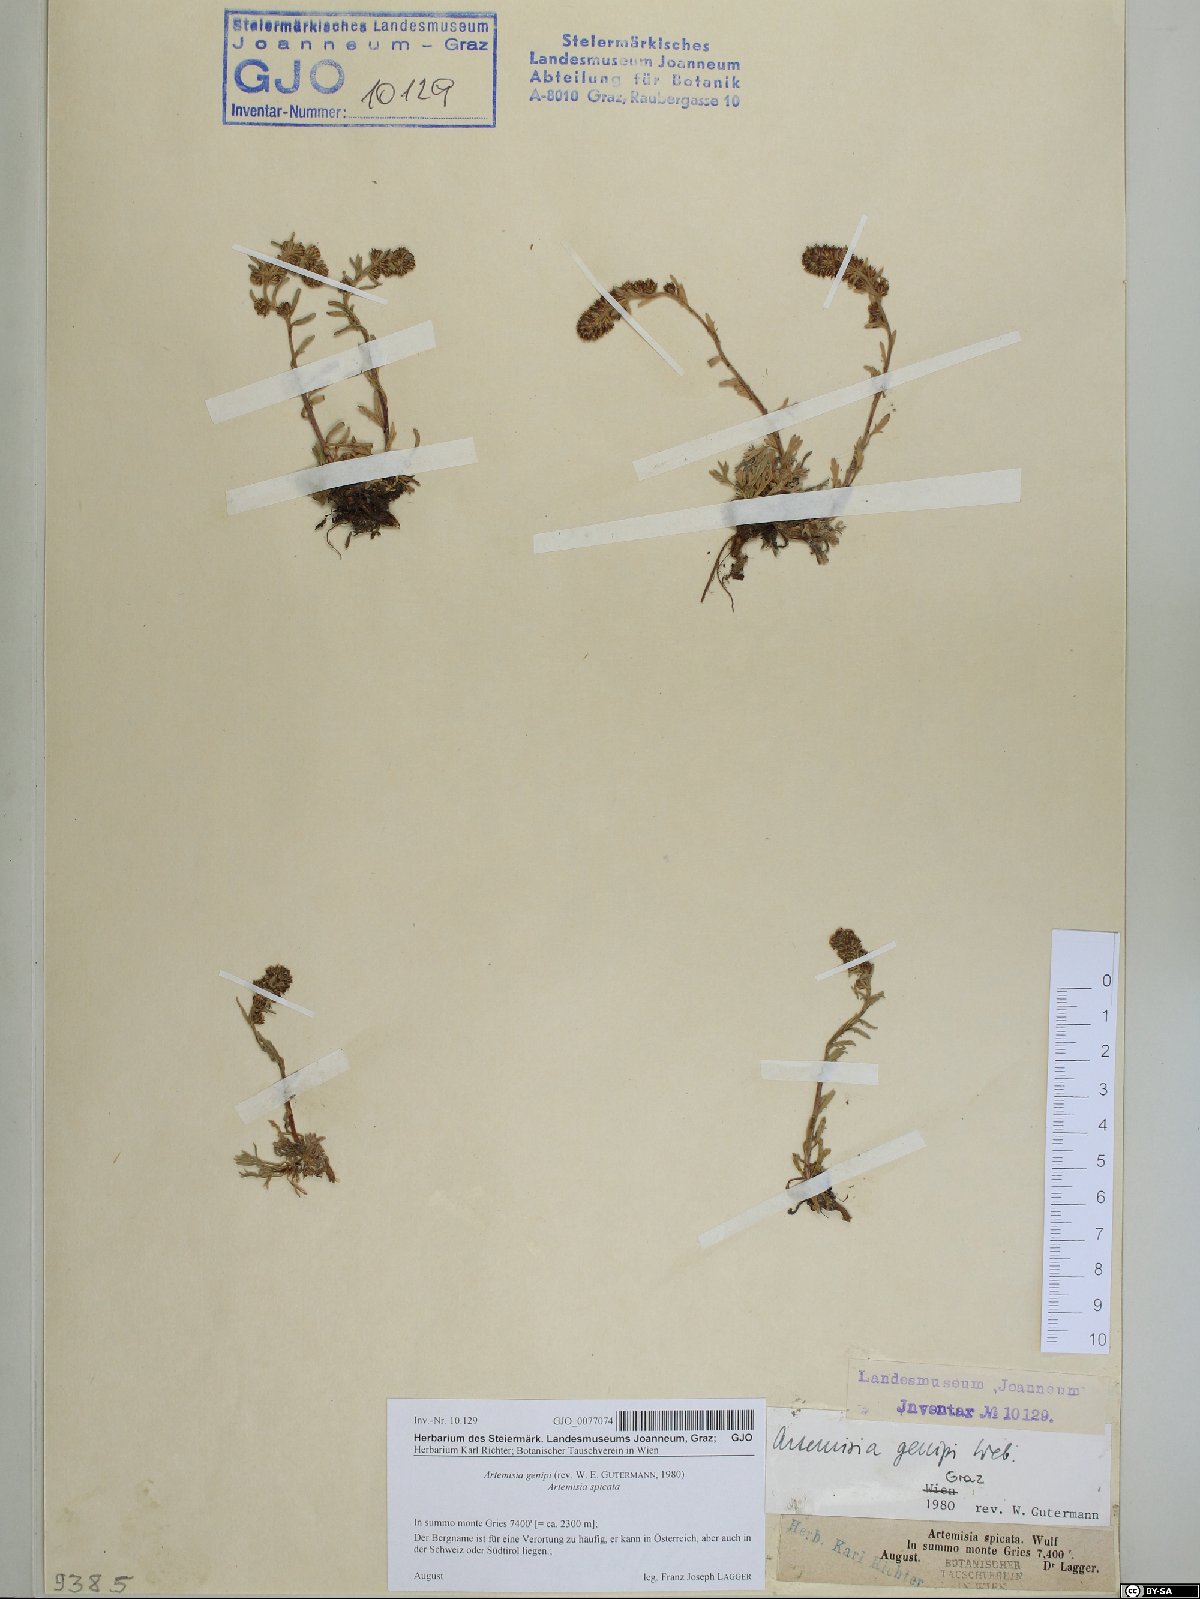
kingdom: Plantae
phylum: Tracheophyta
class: Magnoliopsida
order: Asterales
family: Asteraceae
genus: Artemisia
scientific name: Artemisia genipi
